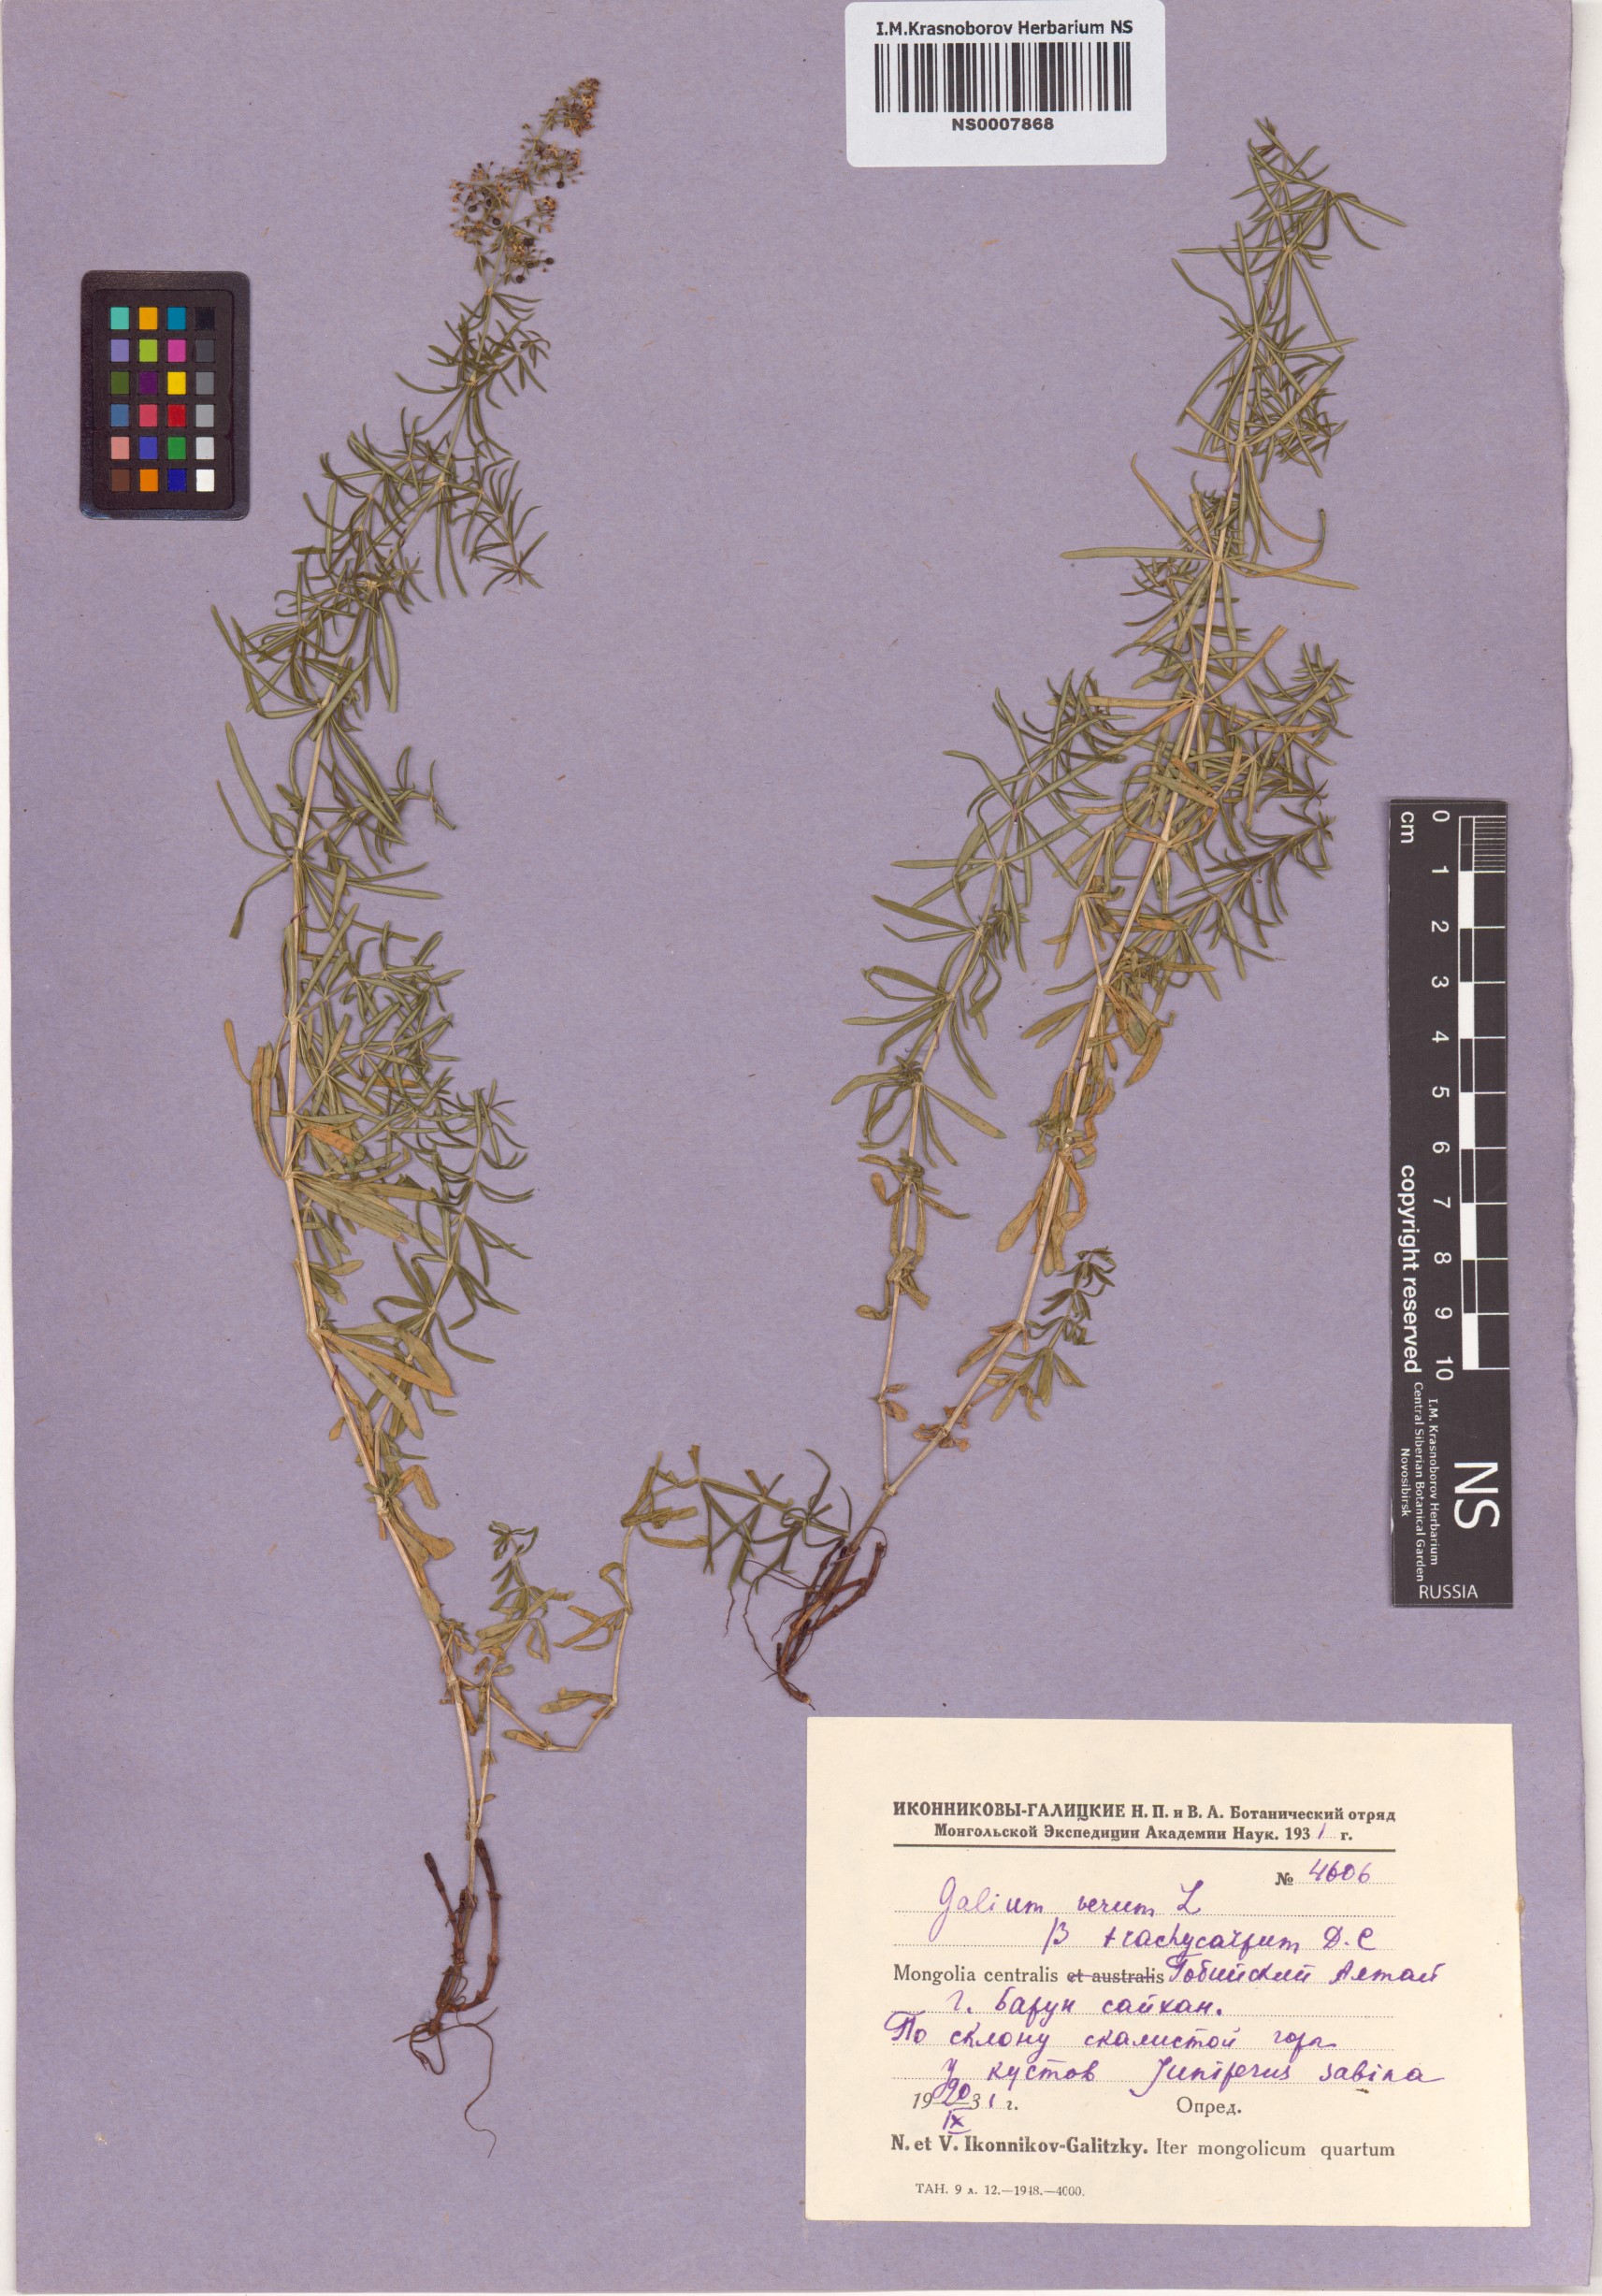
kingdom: Plantae
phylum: Tracheophyta
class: Magnoliopsida
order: Gentianales
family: Rubiaceae
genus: Galium
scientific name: Galium verum
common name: Lady's bedstraw
